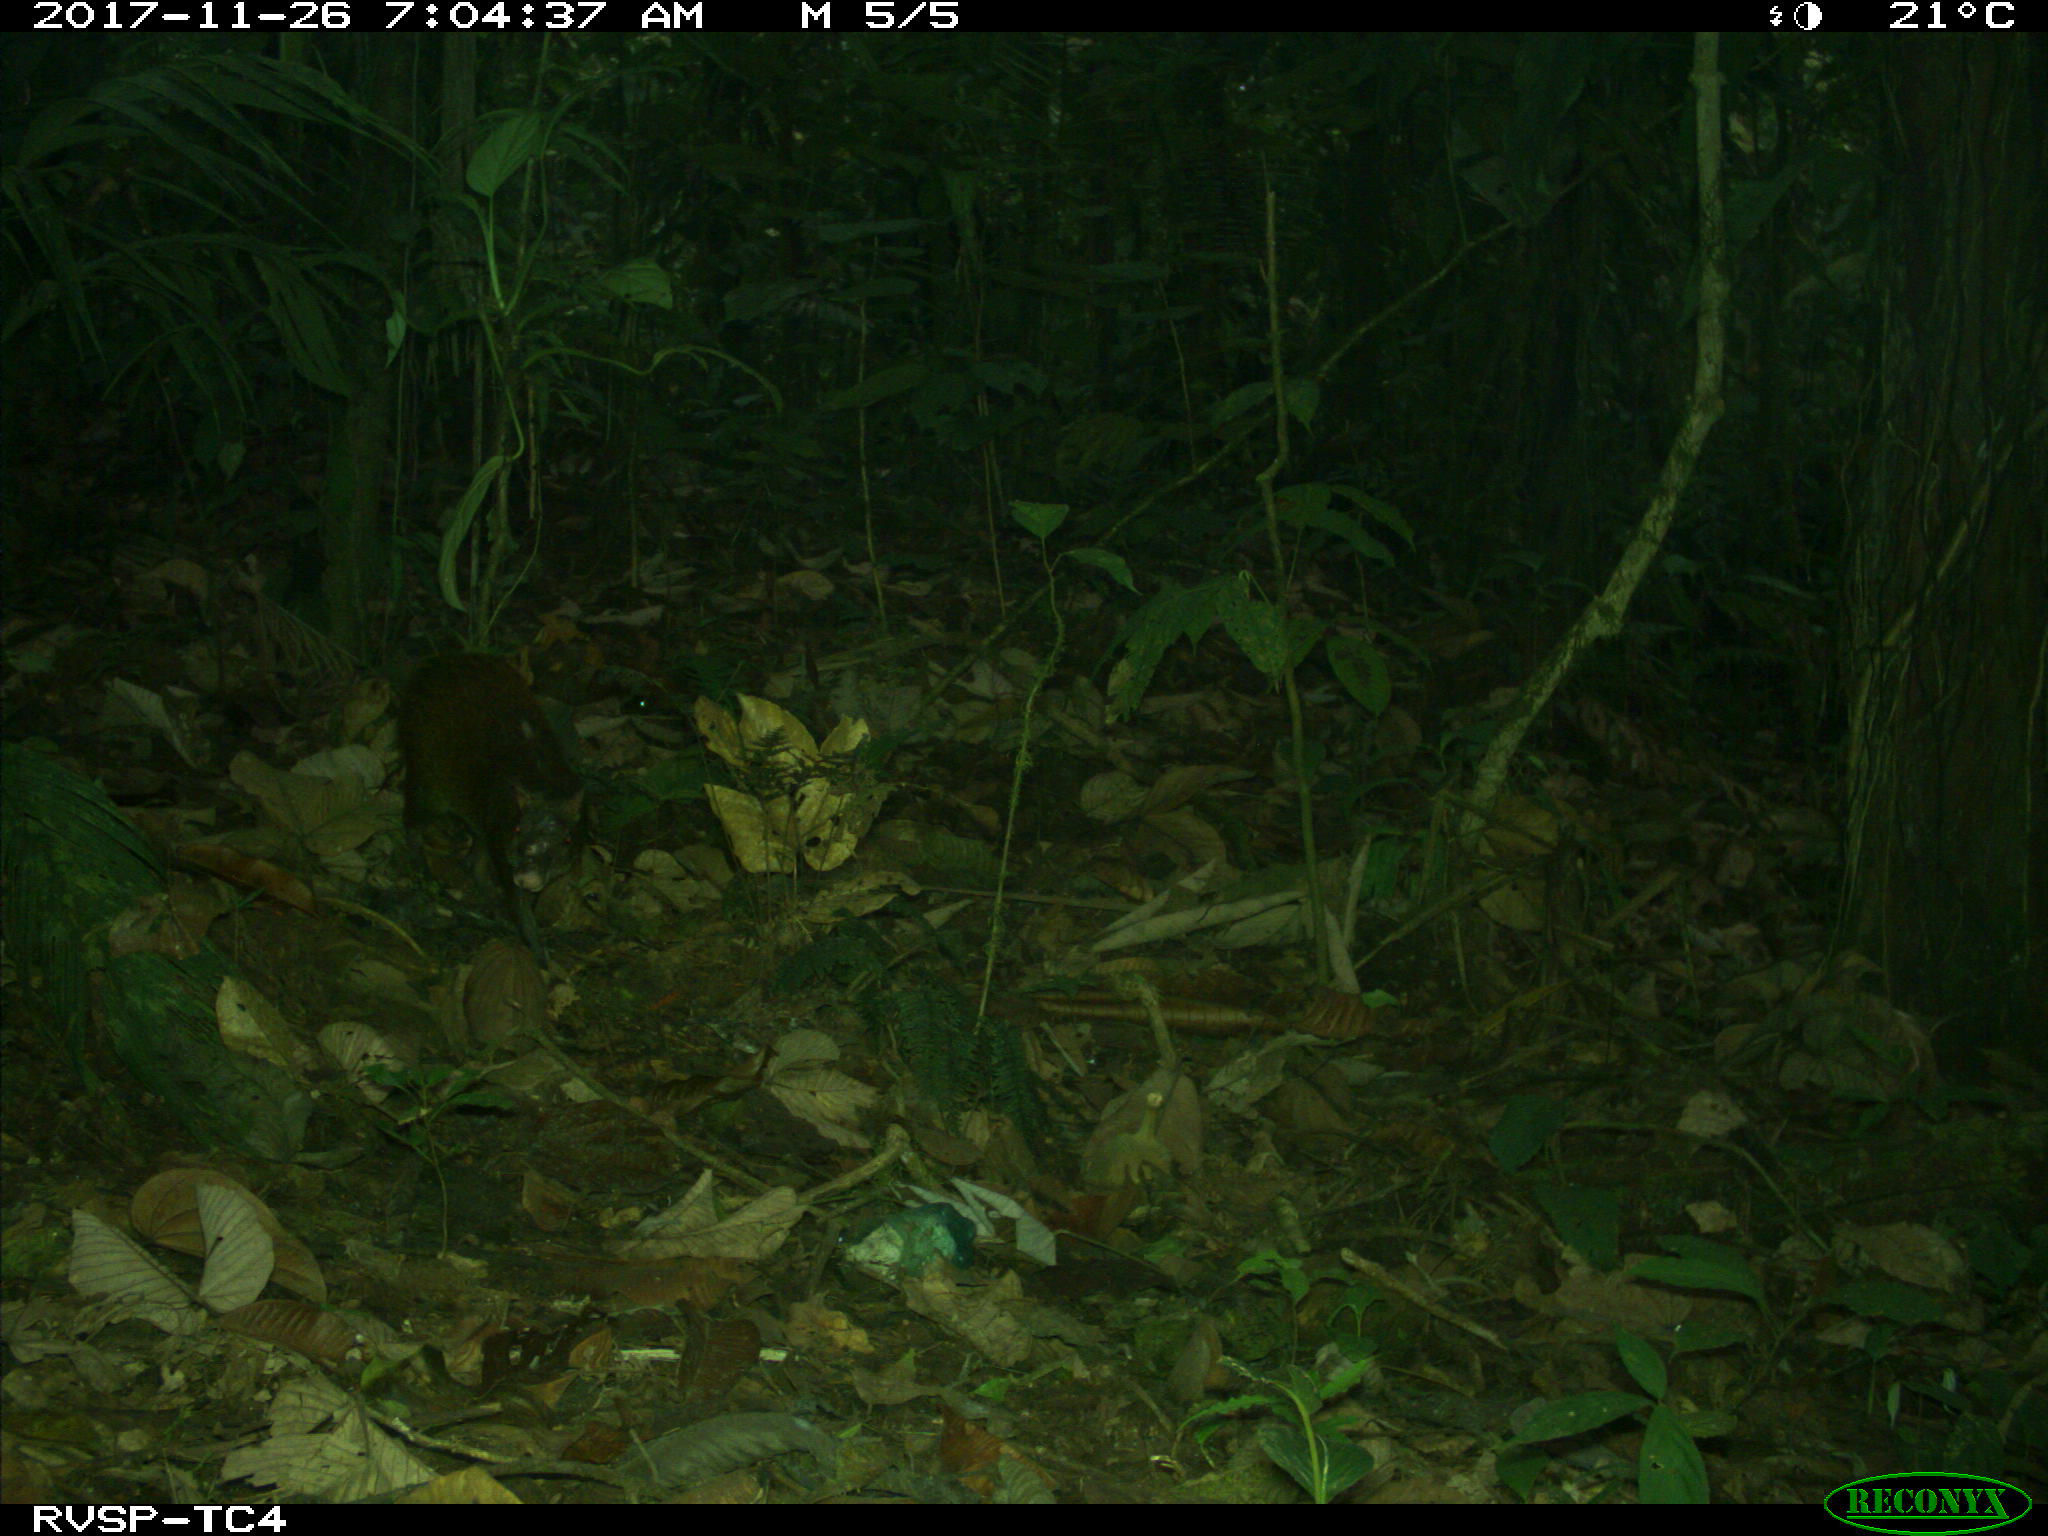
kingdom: Animalia
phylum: Chordata
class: Mammalia
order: Rodentia
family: Dasyproctidae
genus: Dasyprocta
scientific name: Dasyprocta punctata
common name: Central american agouti
